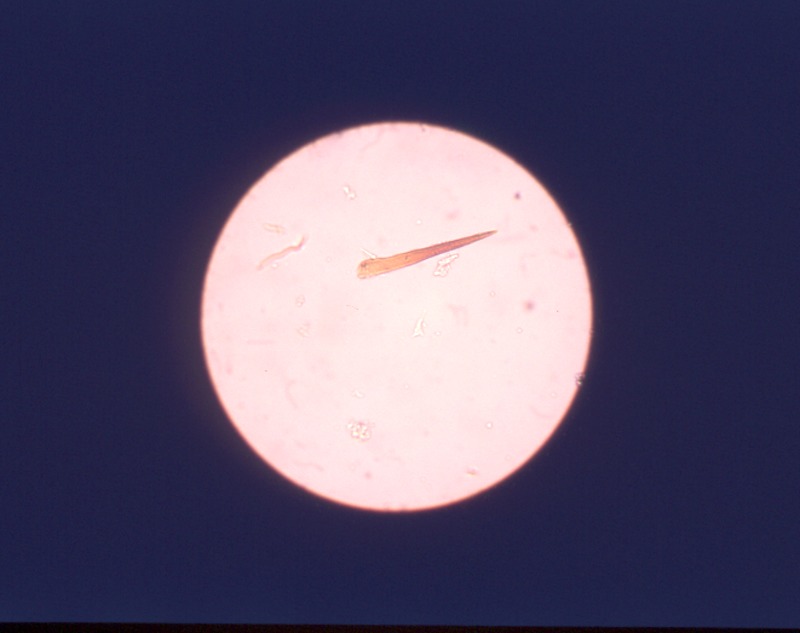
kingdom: Fungi
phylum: Basidiomycota
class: Agaricomycetes
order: Hymenochaetales
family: Hymenochaetaceae
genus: Fuscoporia
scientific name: Fuscoporia contigua
